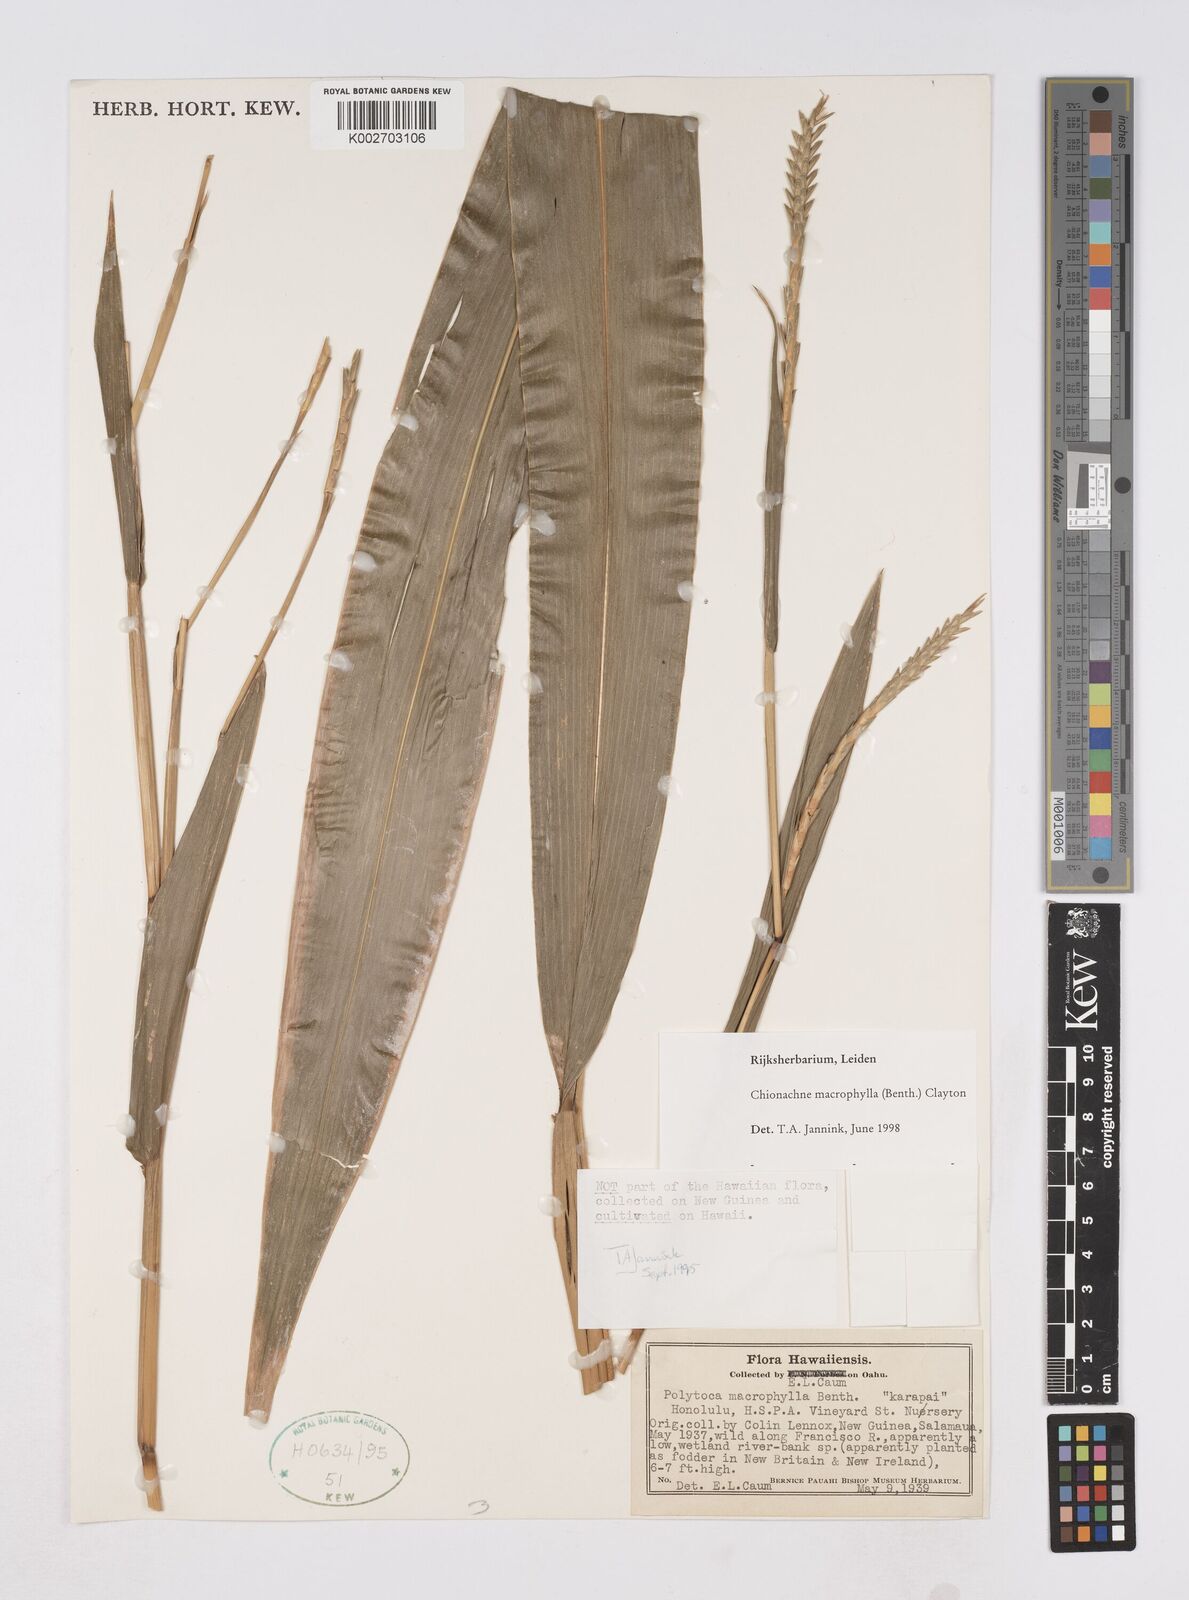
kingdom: Plantae
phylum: Tracheophyta
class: Liliopsida
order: Poales
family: Poaceae
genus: Polytoca
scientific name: Polytoca macrophylla
